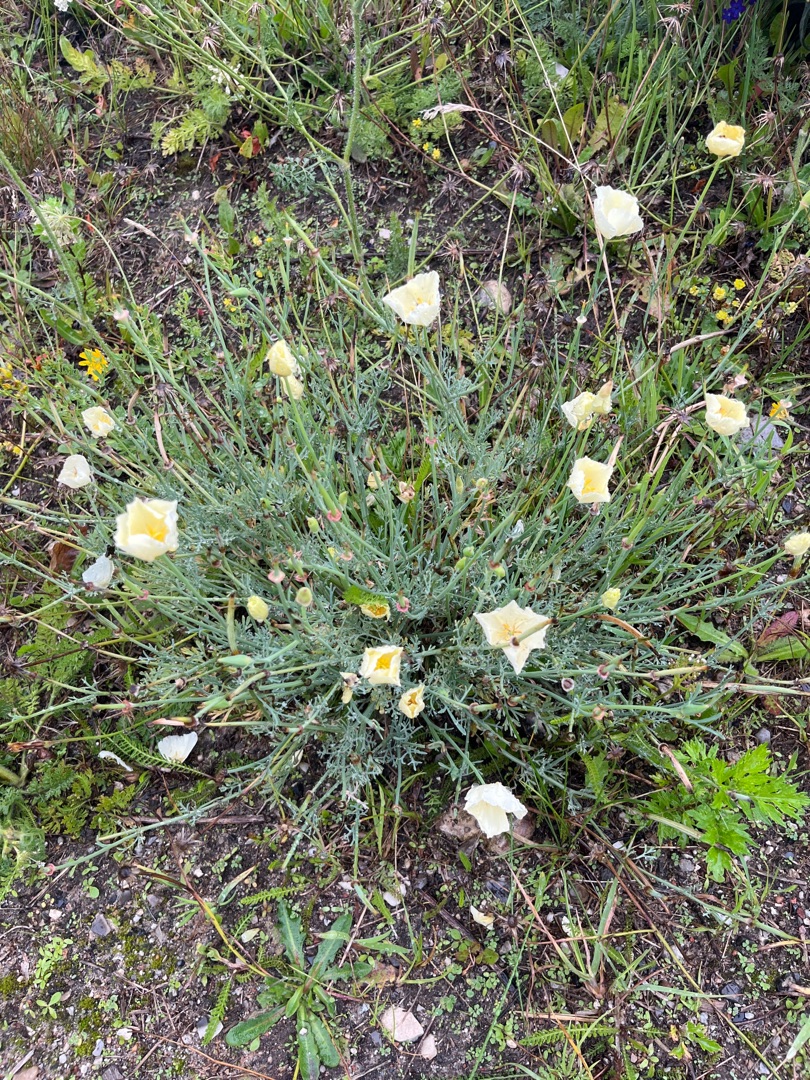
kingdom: Plantae
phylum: Tracheophyta
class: Magnoliopsida
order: Ranunculales
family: Papaveraceae
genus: Eschscholzia
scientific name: Eschscholzia californica
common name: Guldvalmue
